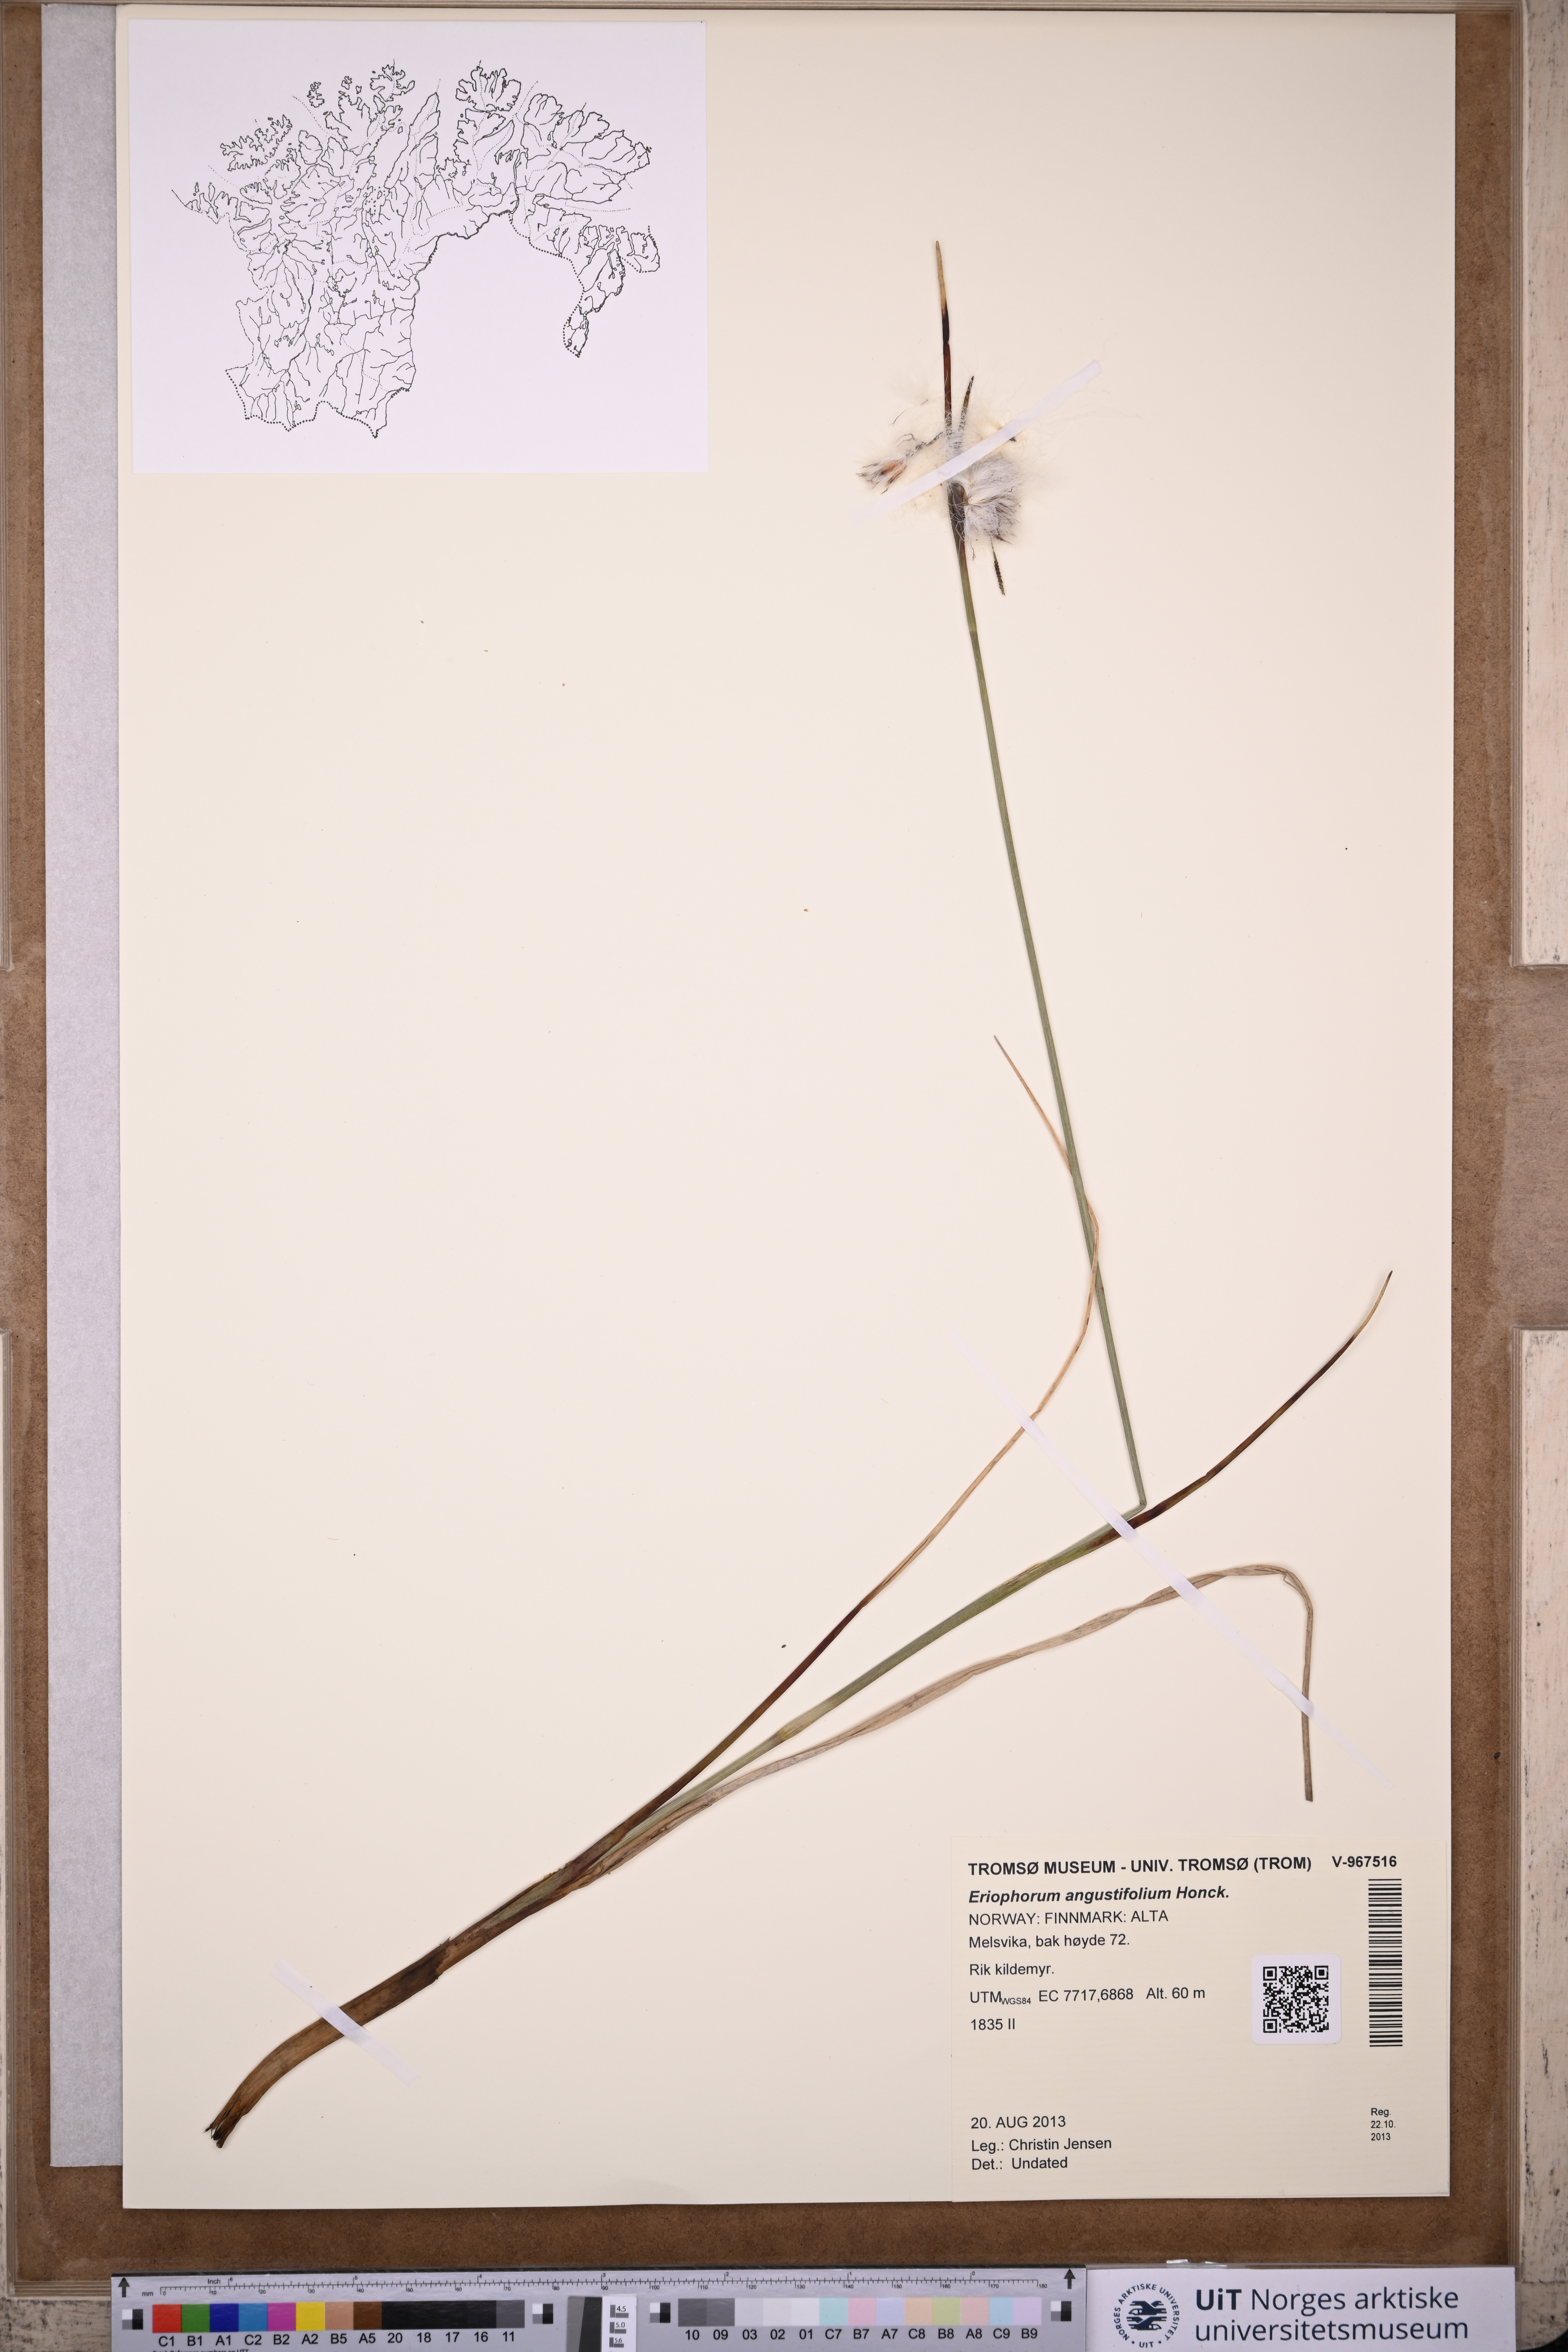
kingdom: Plantae
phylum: Tracheophyta
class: Liliopsida
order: Poales
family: Cyperaceae
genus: Eriophorum
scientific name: Eriophorum angustifolium
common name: Common cottongrass
